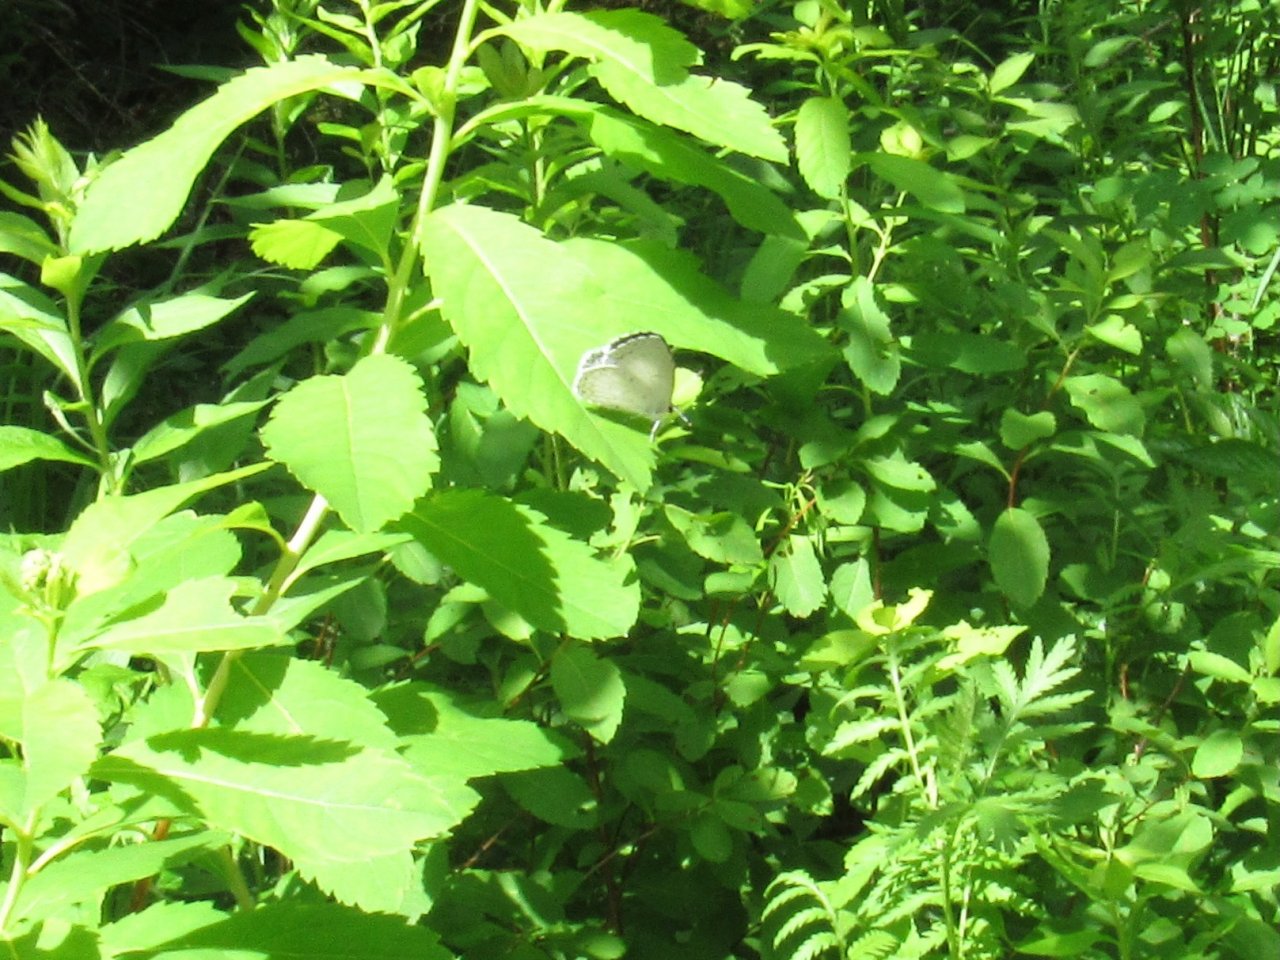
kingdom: Animalia
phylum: Arthropoda
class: Insecta
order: Lepidoptera
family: Lycaenidae
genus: Cyaniris
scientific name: Cyaniris neglecta
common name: Summer Azure
